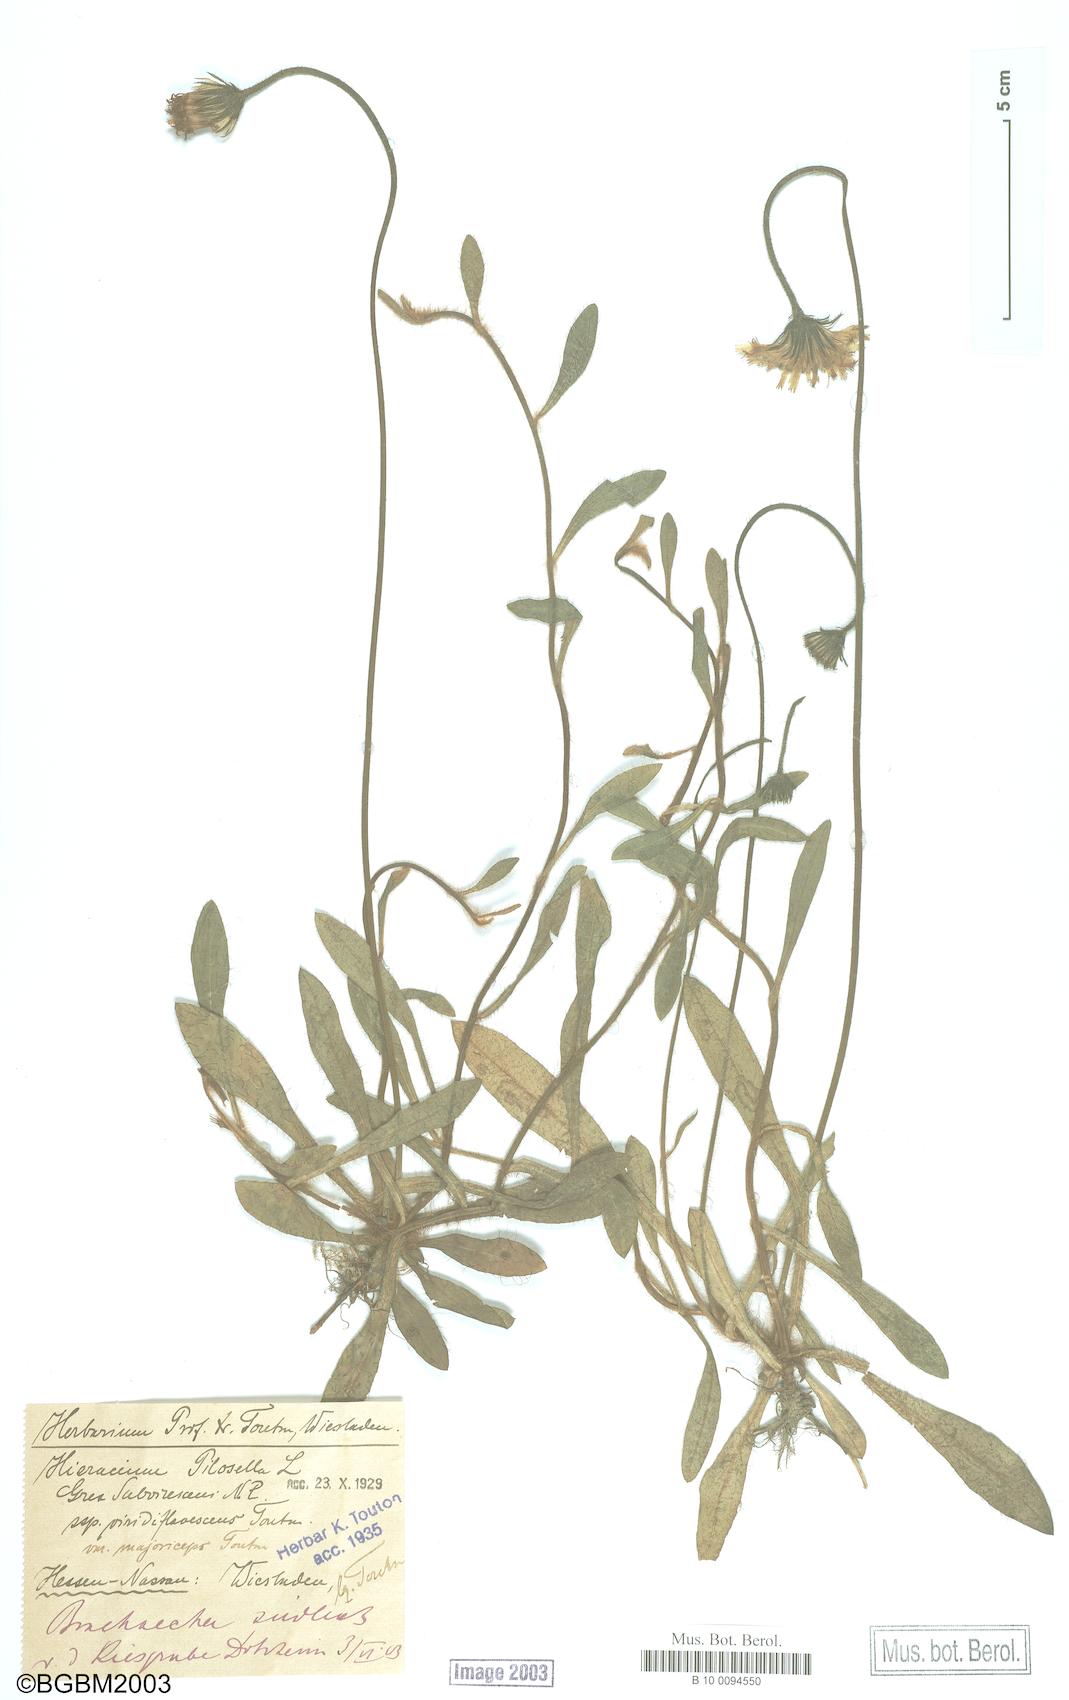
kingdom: Plantae
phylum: Tracheophyta
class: Magnoliopsida
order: Asterales
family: Asteraceae
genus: Pilosella
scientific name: Pilosella officinarum
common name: Mouse-ear hawkweed
